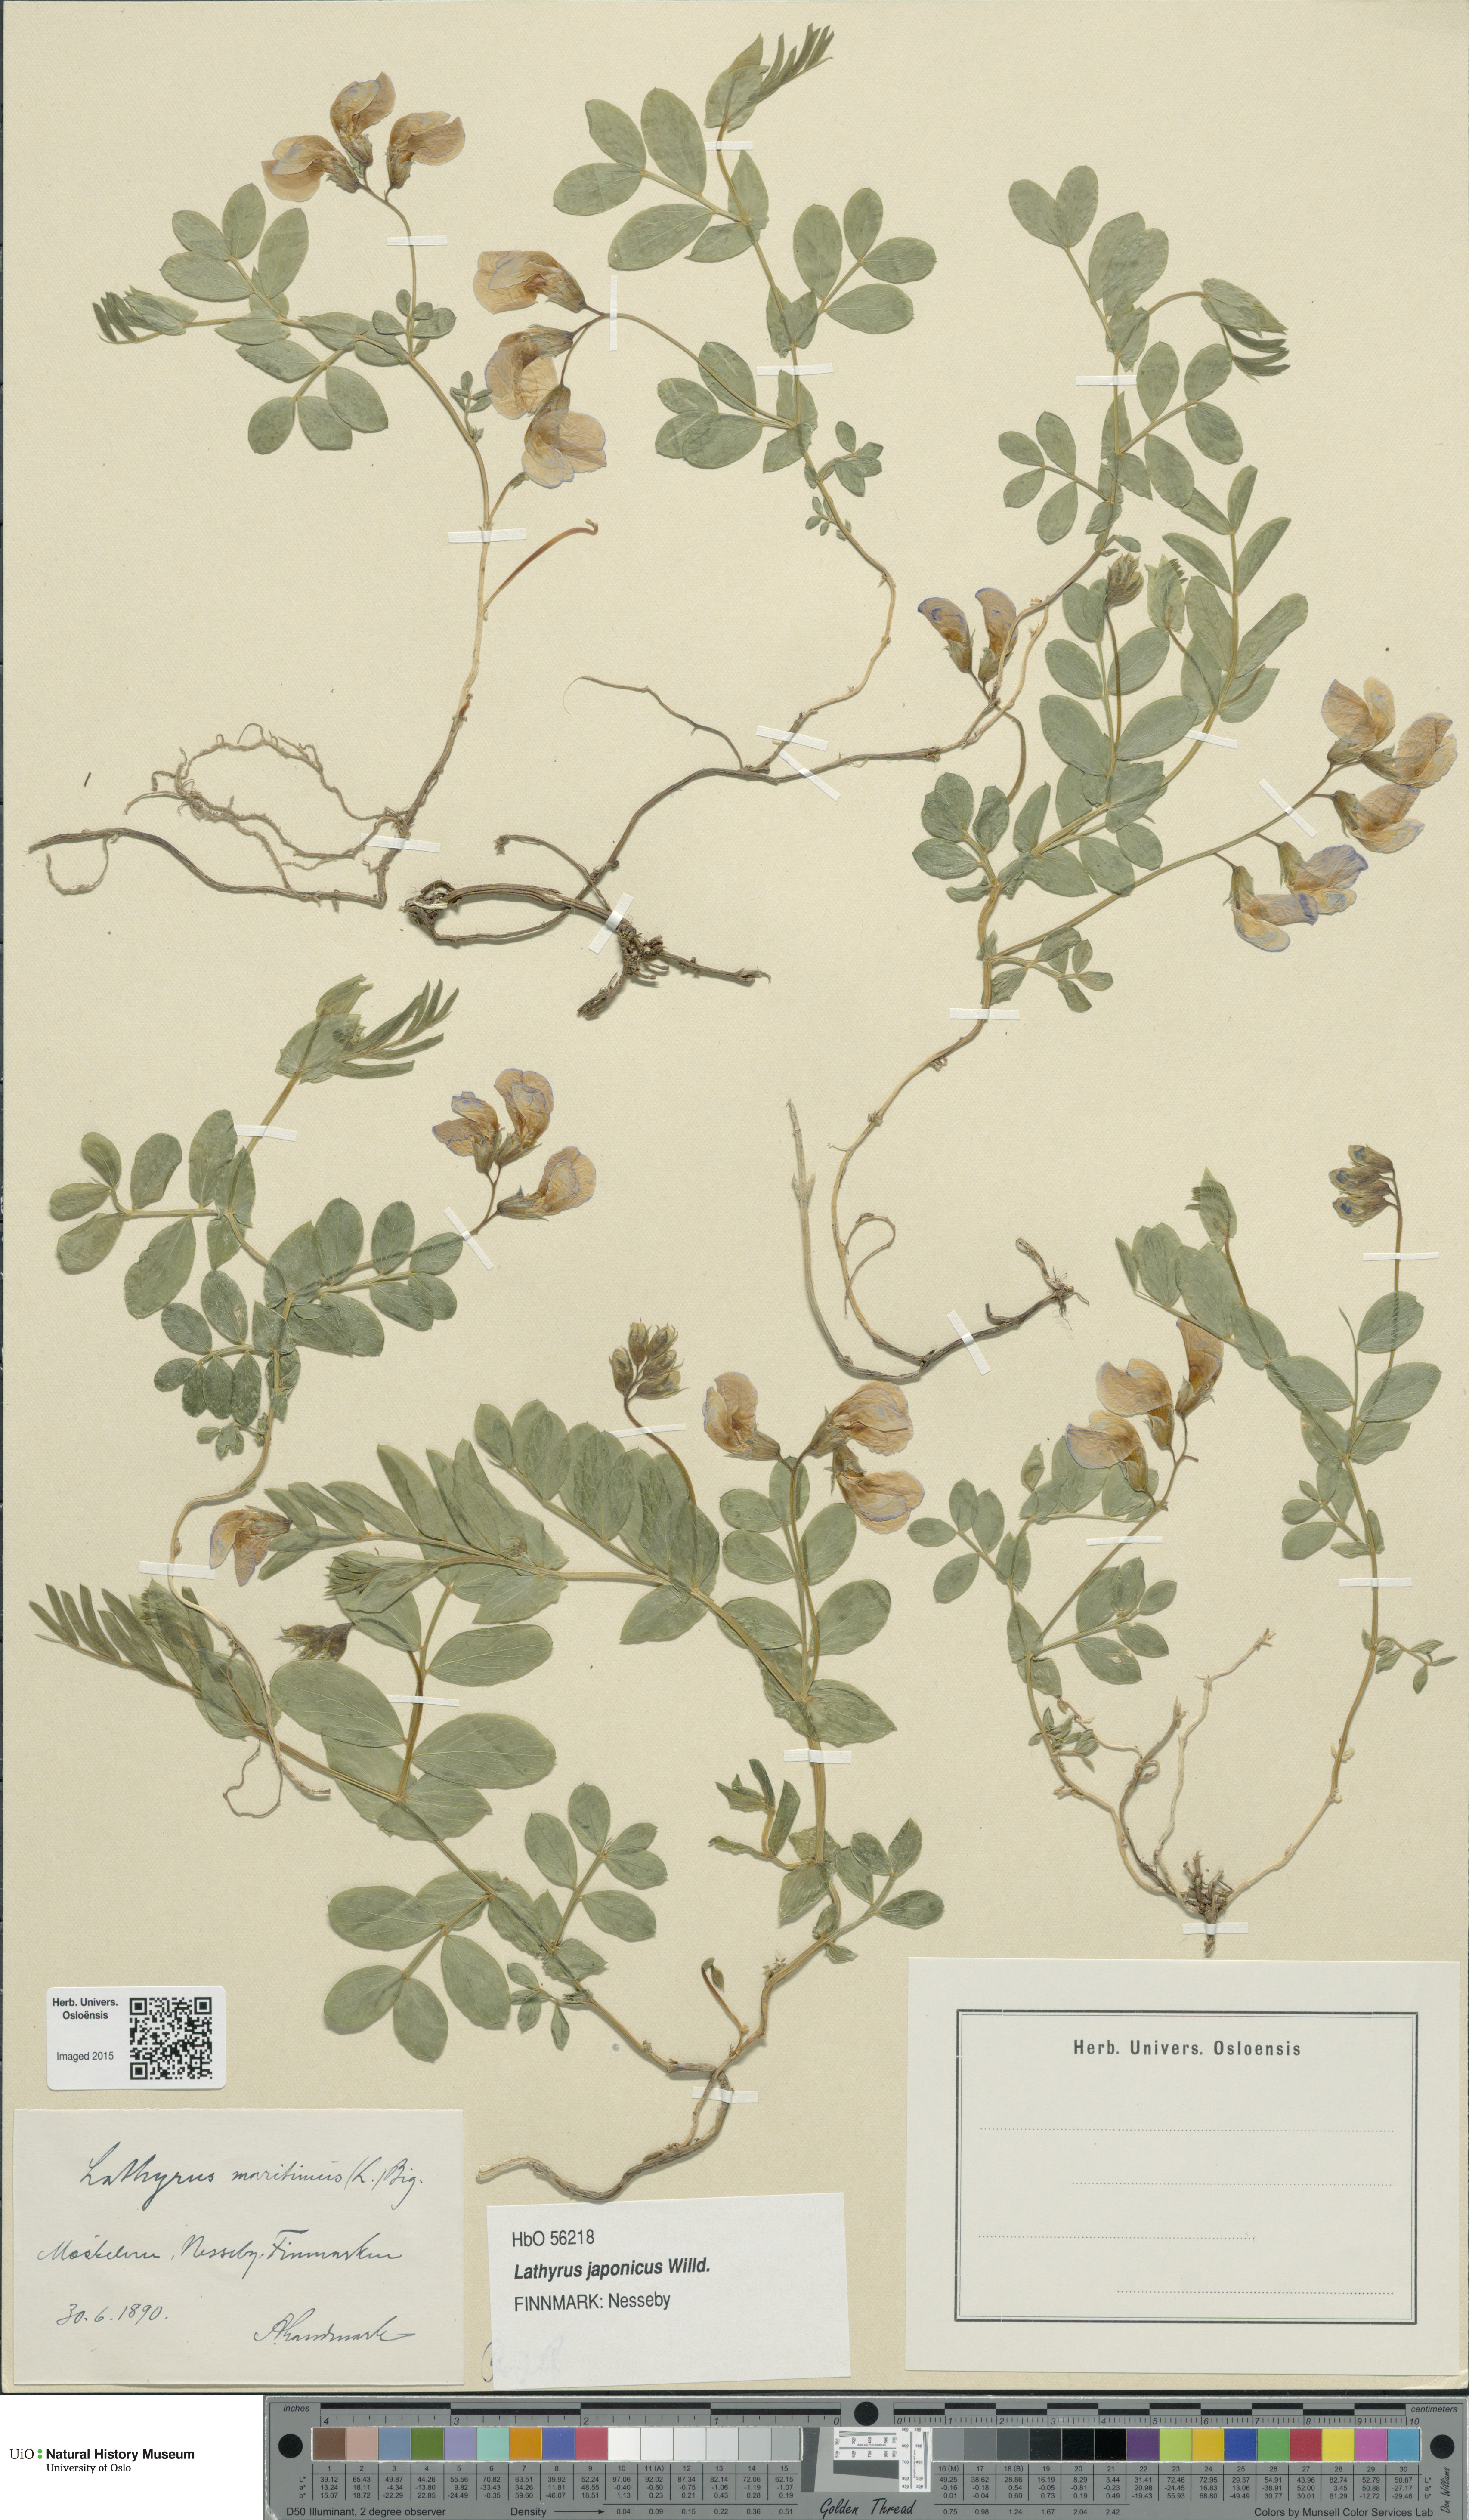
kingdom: Plantae
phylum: Tracheophyta
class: Magnoliopsida
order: Fabales
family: Fabaceae
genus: Lathyrus
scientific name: Lathyrus
